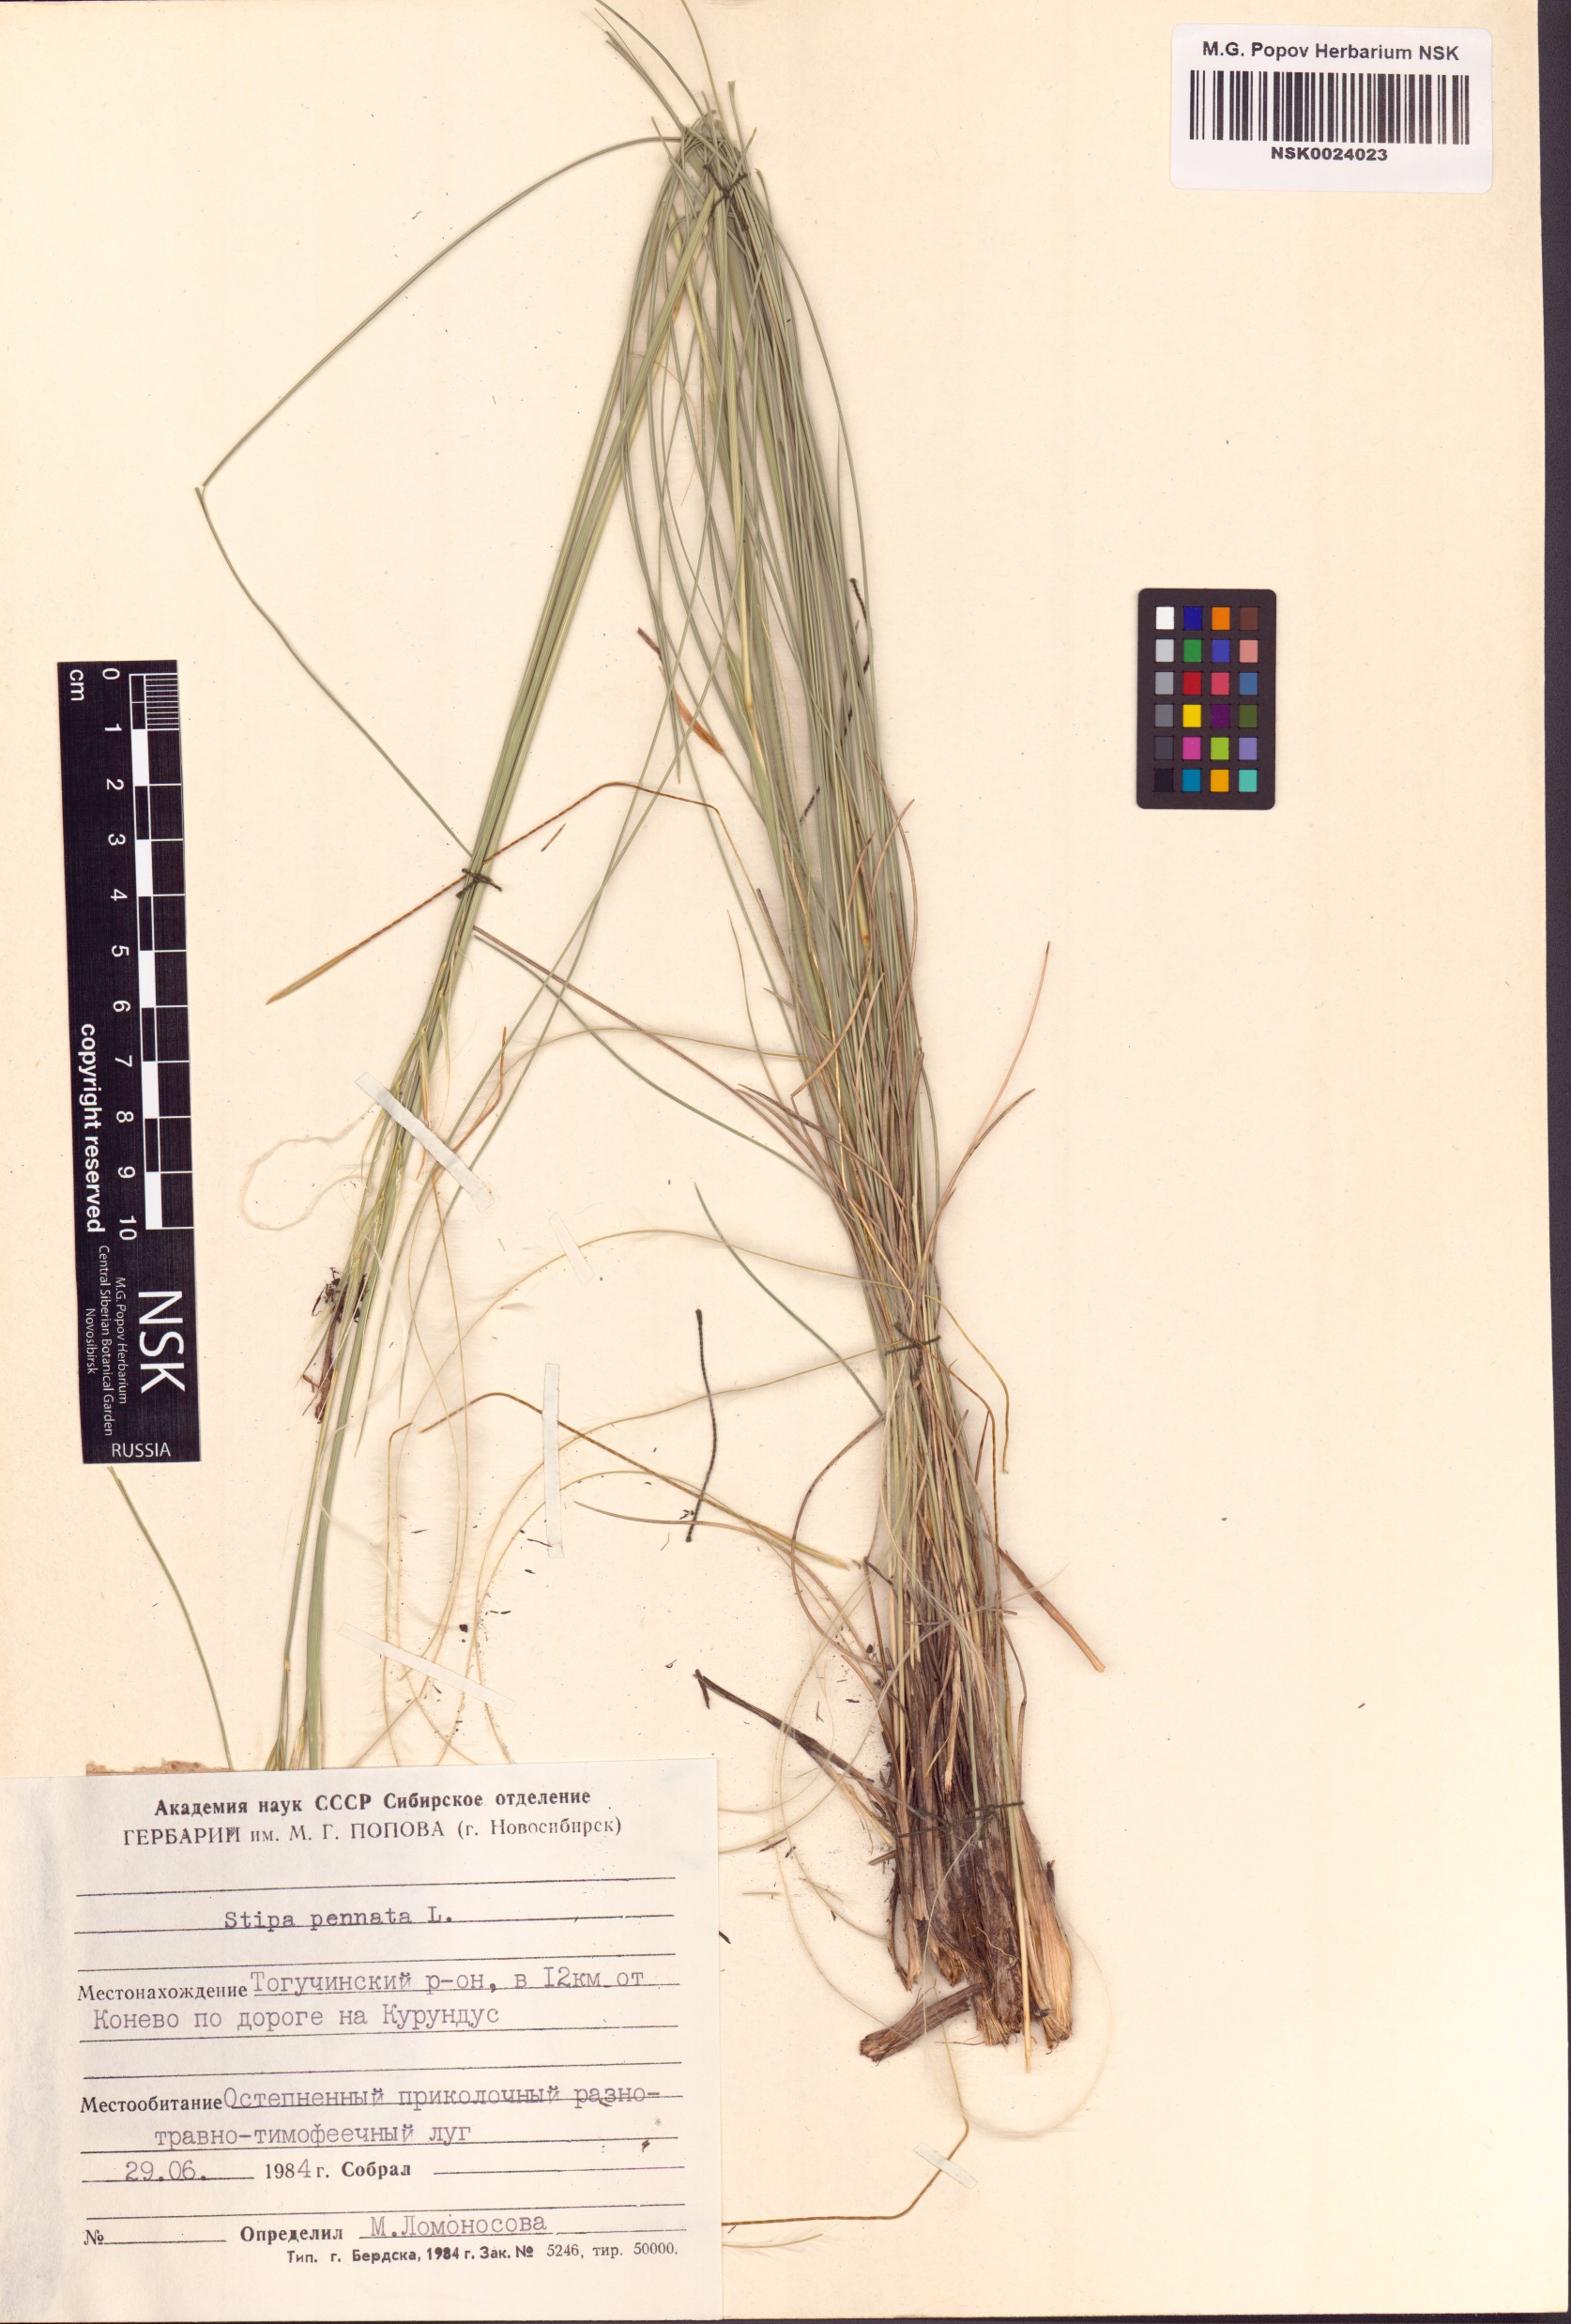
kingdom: Plantae
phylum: Tracheophyta
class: Liliopsida
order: Poales
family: Poaceae
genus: Stipa
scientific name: Stipa pennata
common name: European feather grass
